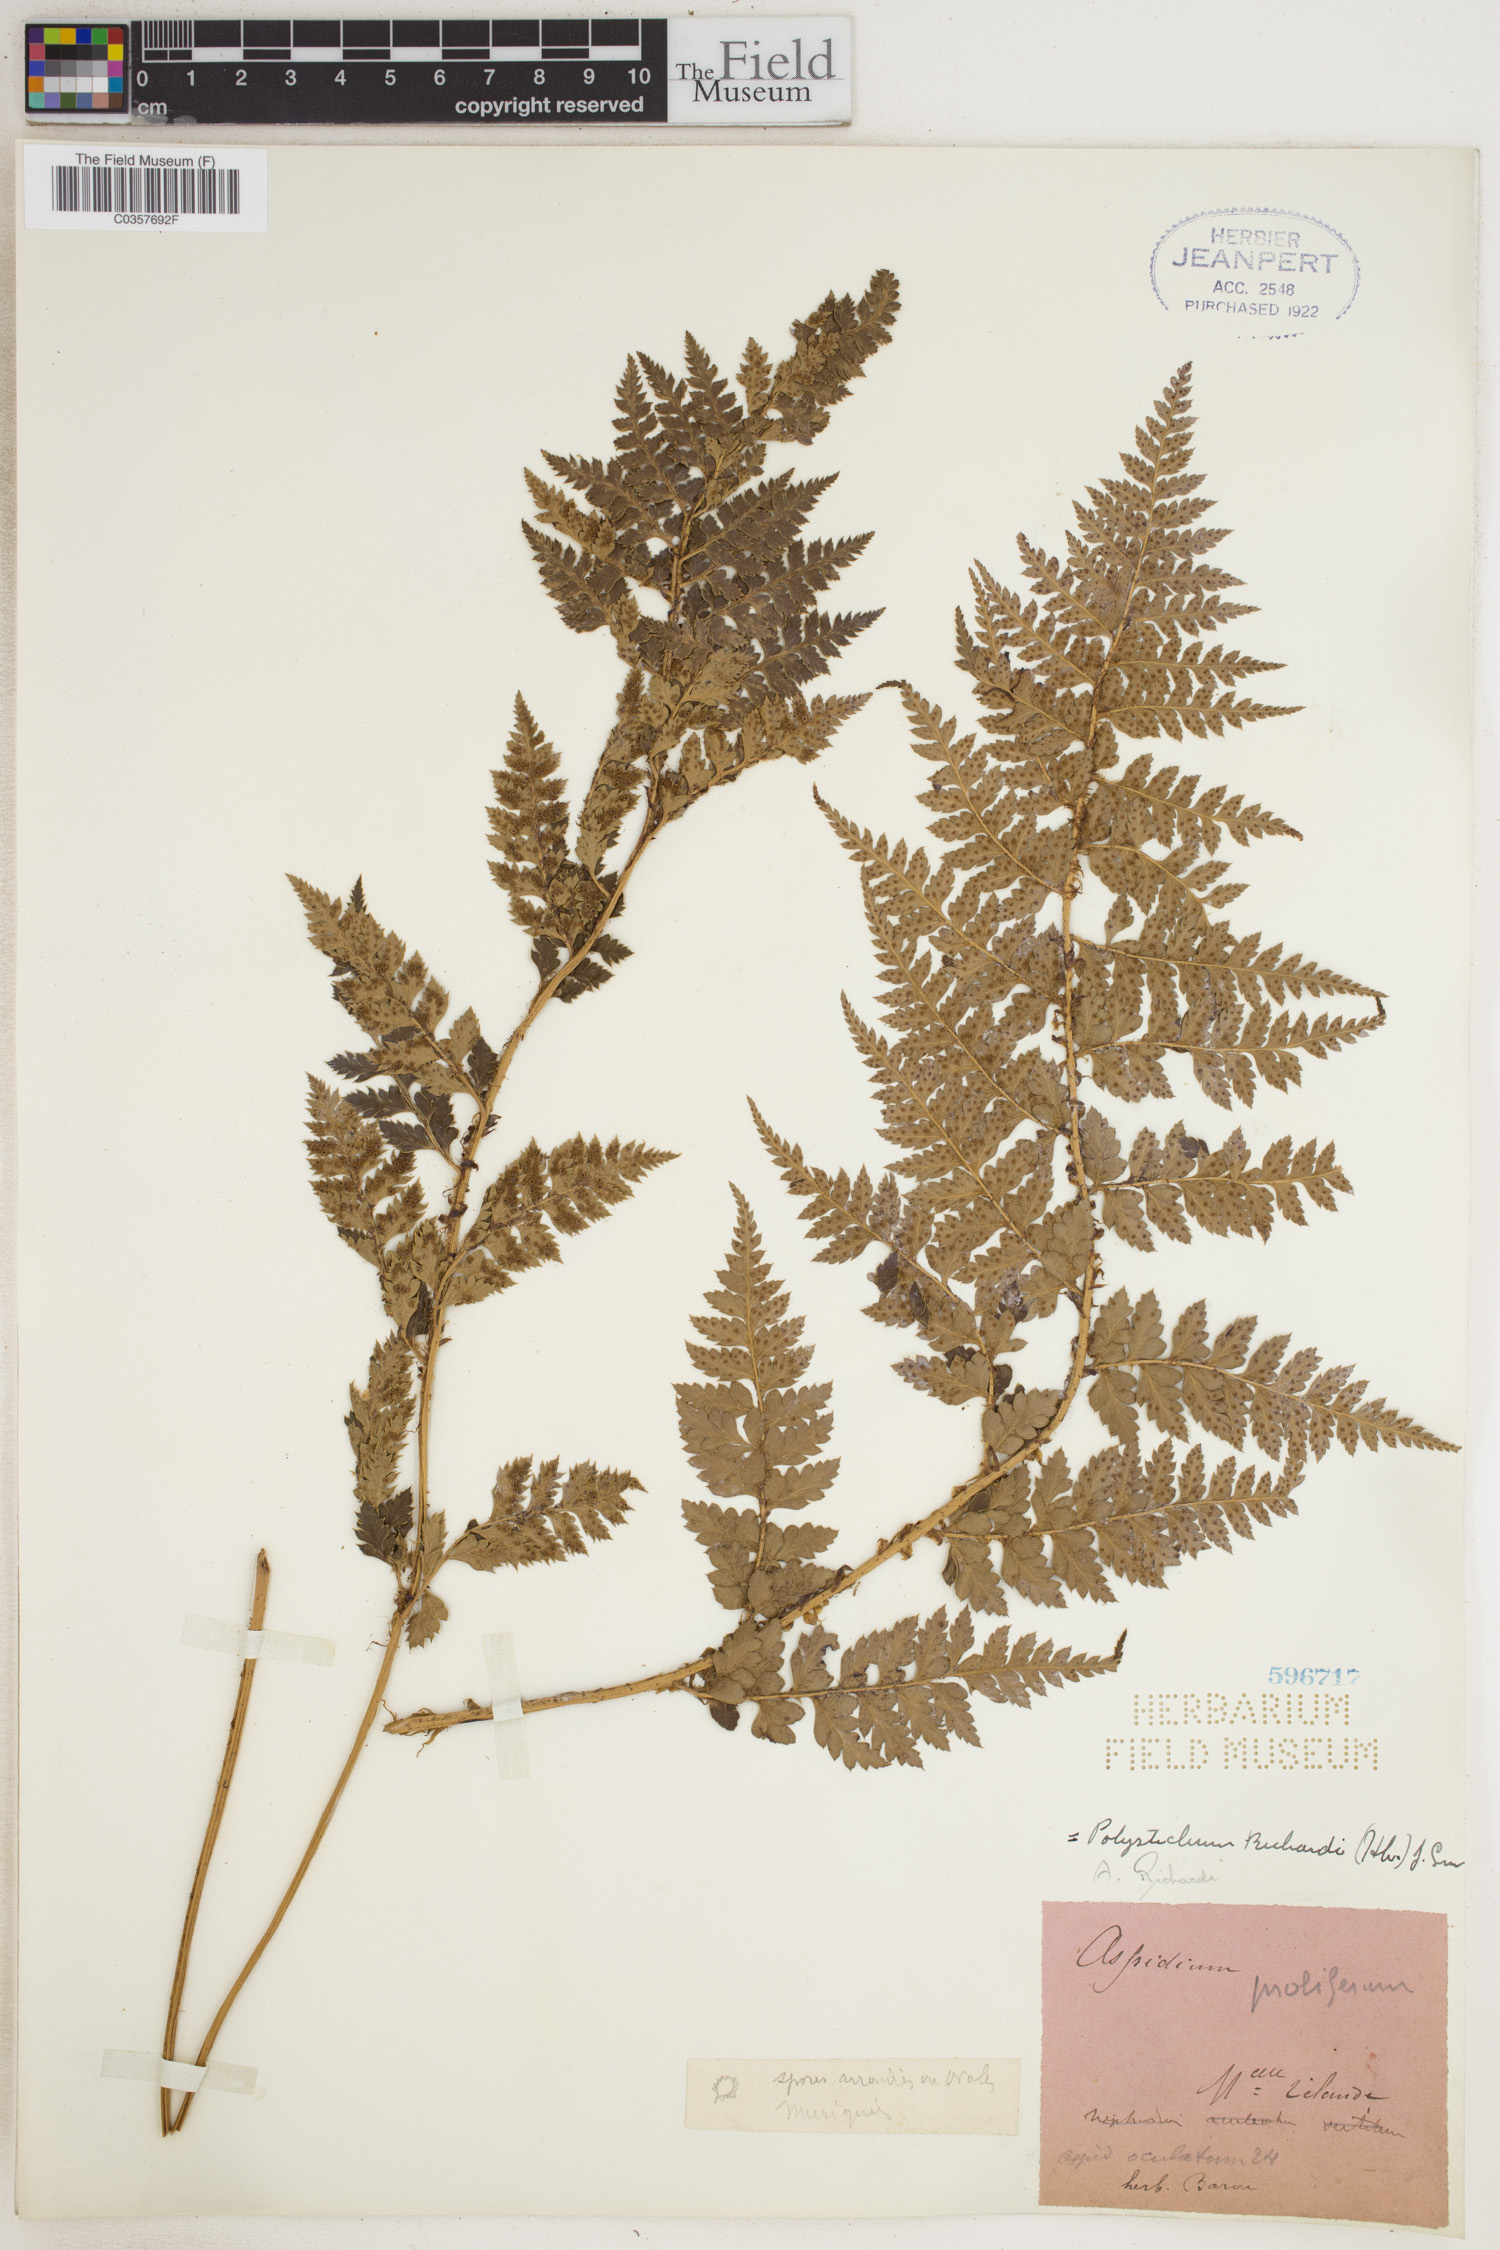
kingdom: Plantae
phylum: Tracheophyta
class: Polypodiopsida
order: Polypodiales
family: Dryopteridaceae
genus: Polystichum
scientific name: Polystichum neozelandicum
